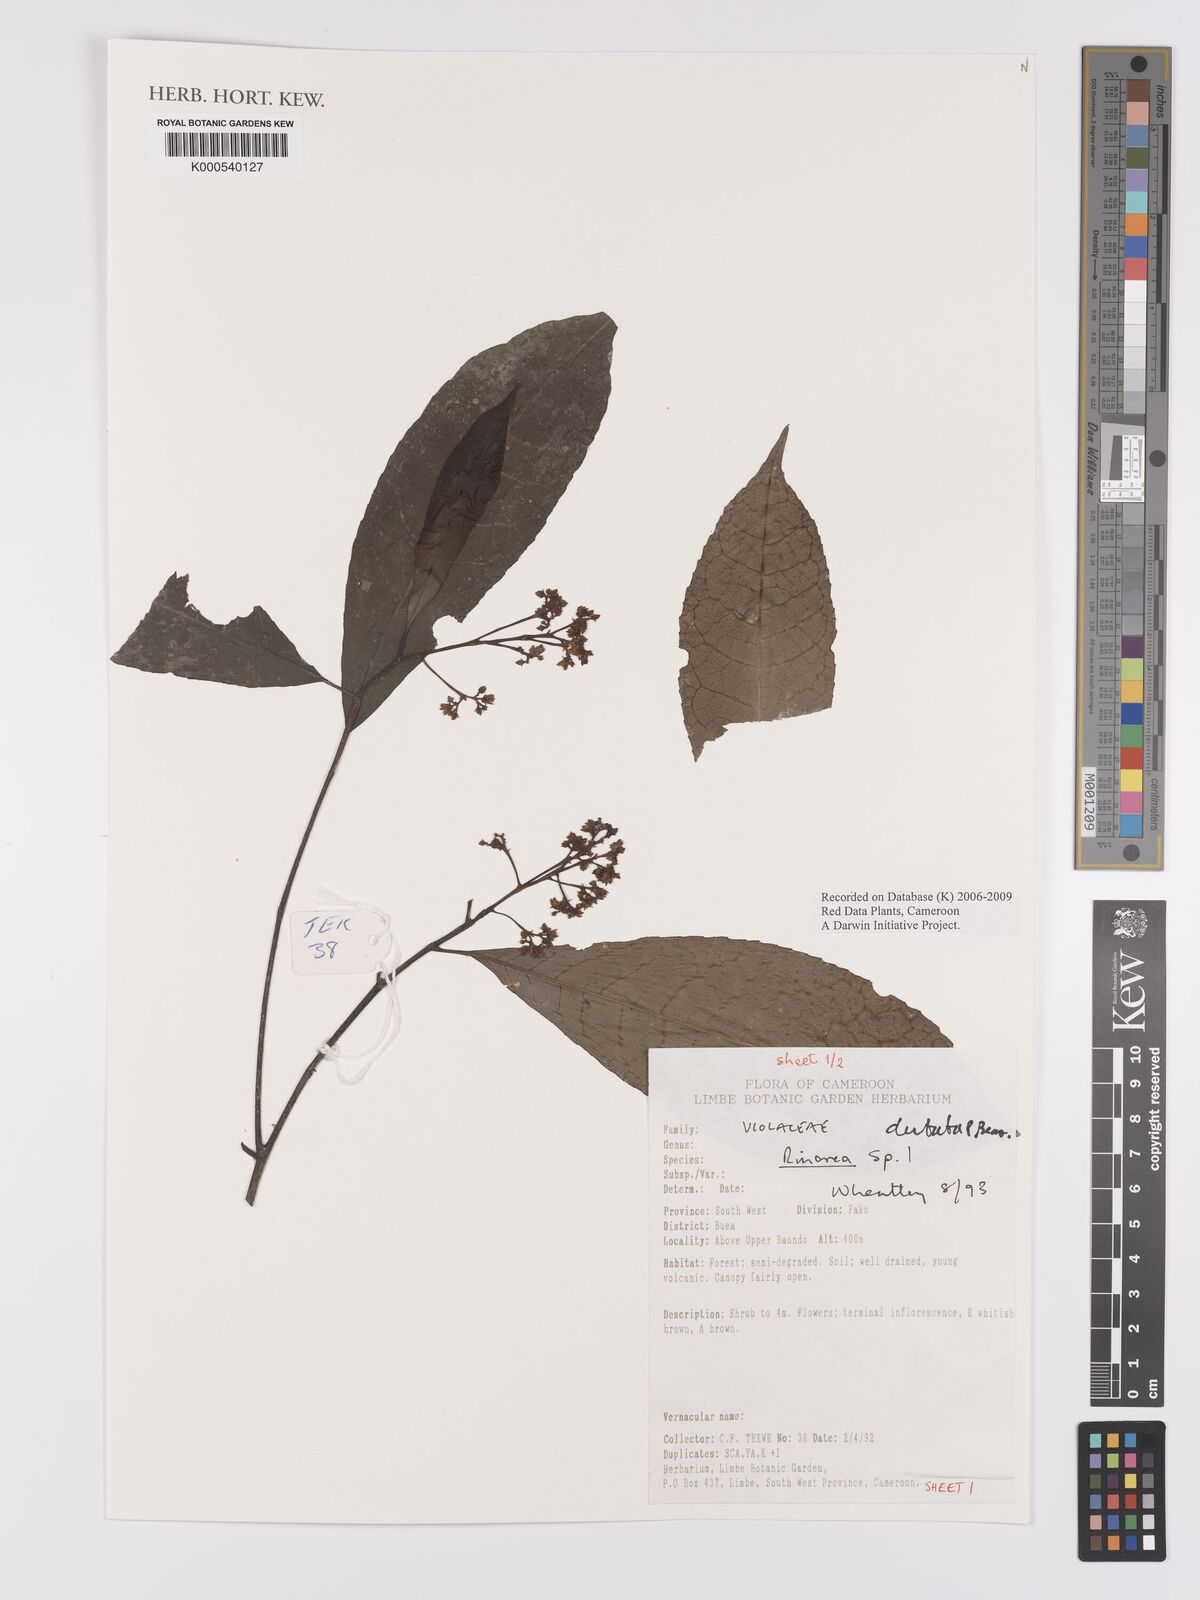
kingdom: Plantae
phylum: Tracheophyta
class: Magnoliopsida
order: Malpighiales
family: Violaceae
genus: Rinorea
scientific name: Rinorea
